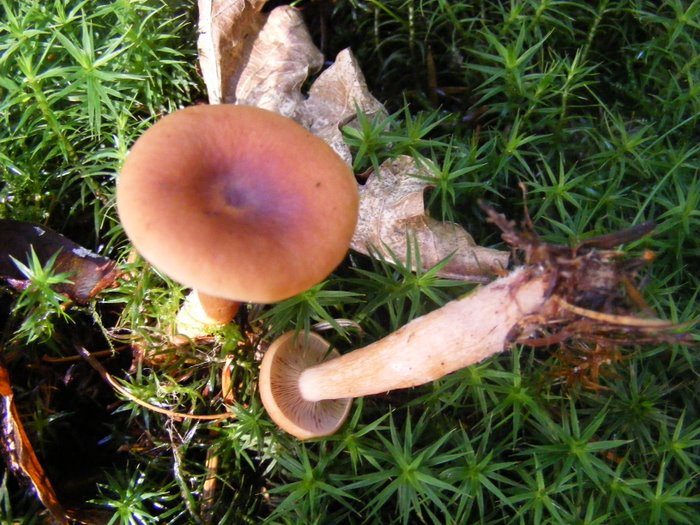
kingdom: Fungi
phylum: Basidiomycota
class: Agaricomycetes
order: Russulales
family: Russulaceae
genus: Lactarius
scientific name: Lactarius camphoratus
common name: kamfer-mælkehat
